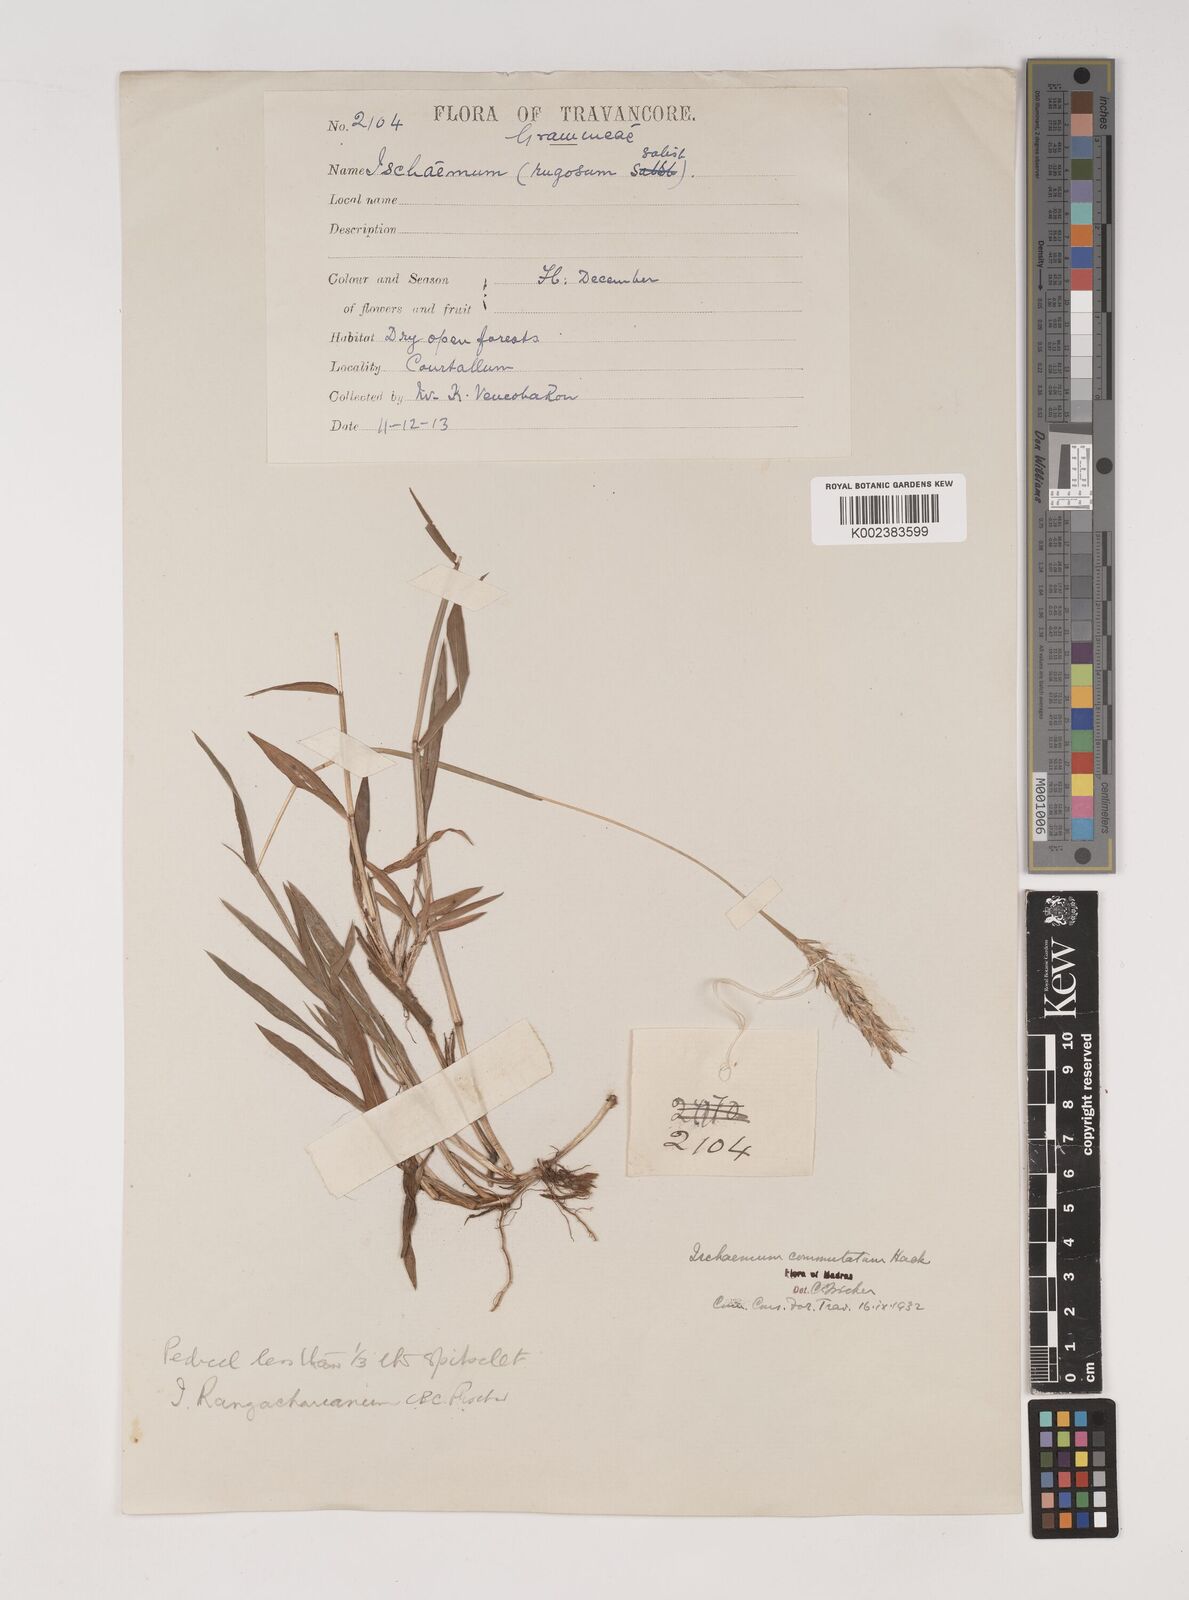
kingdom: Plantae
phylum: Tracheophyta
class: Liliopsida
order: Poales
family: Poaceae
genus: Ischaemum
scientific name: Ischaemum rangacharianum
